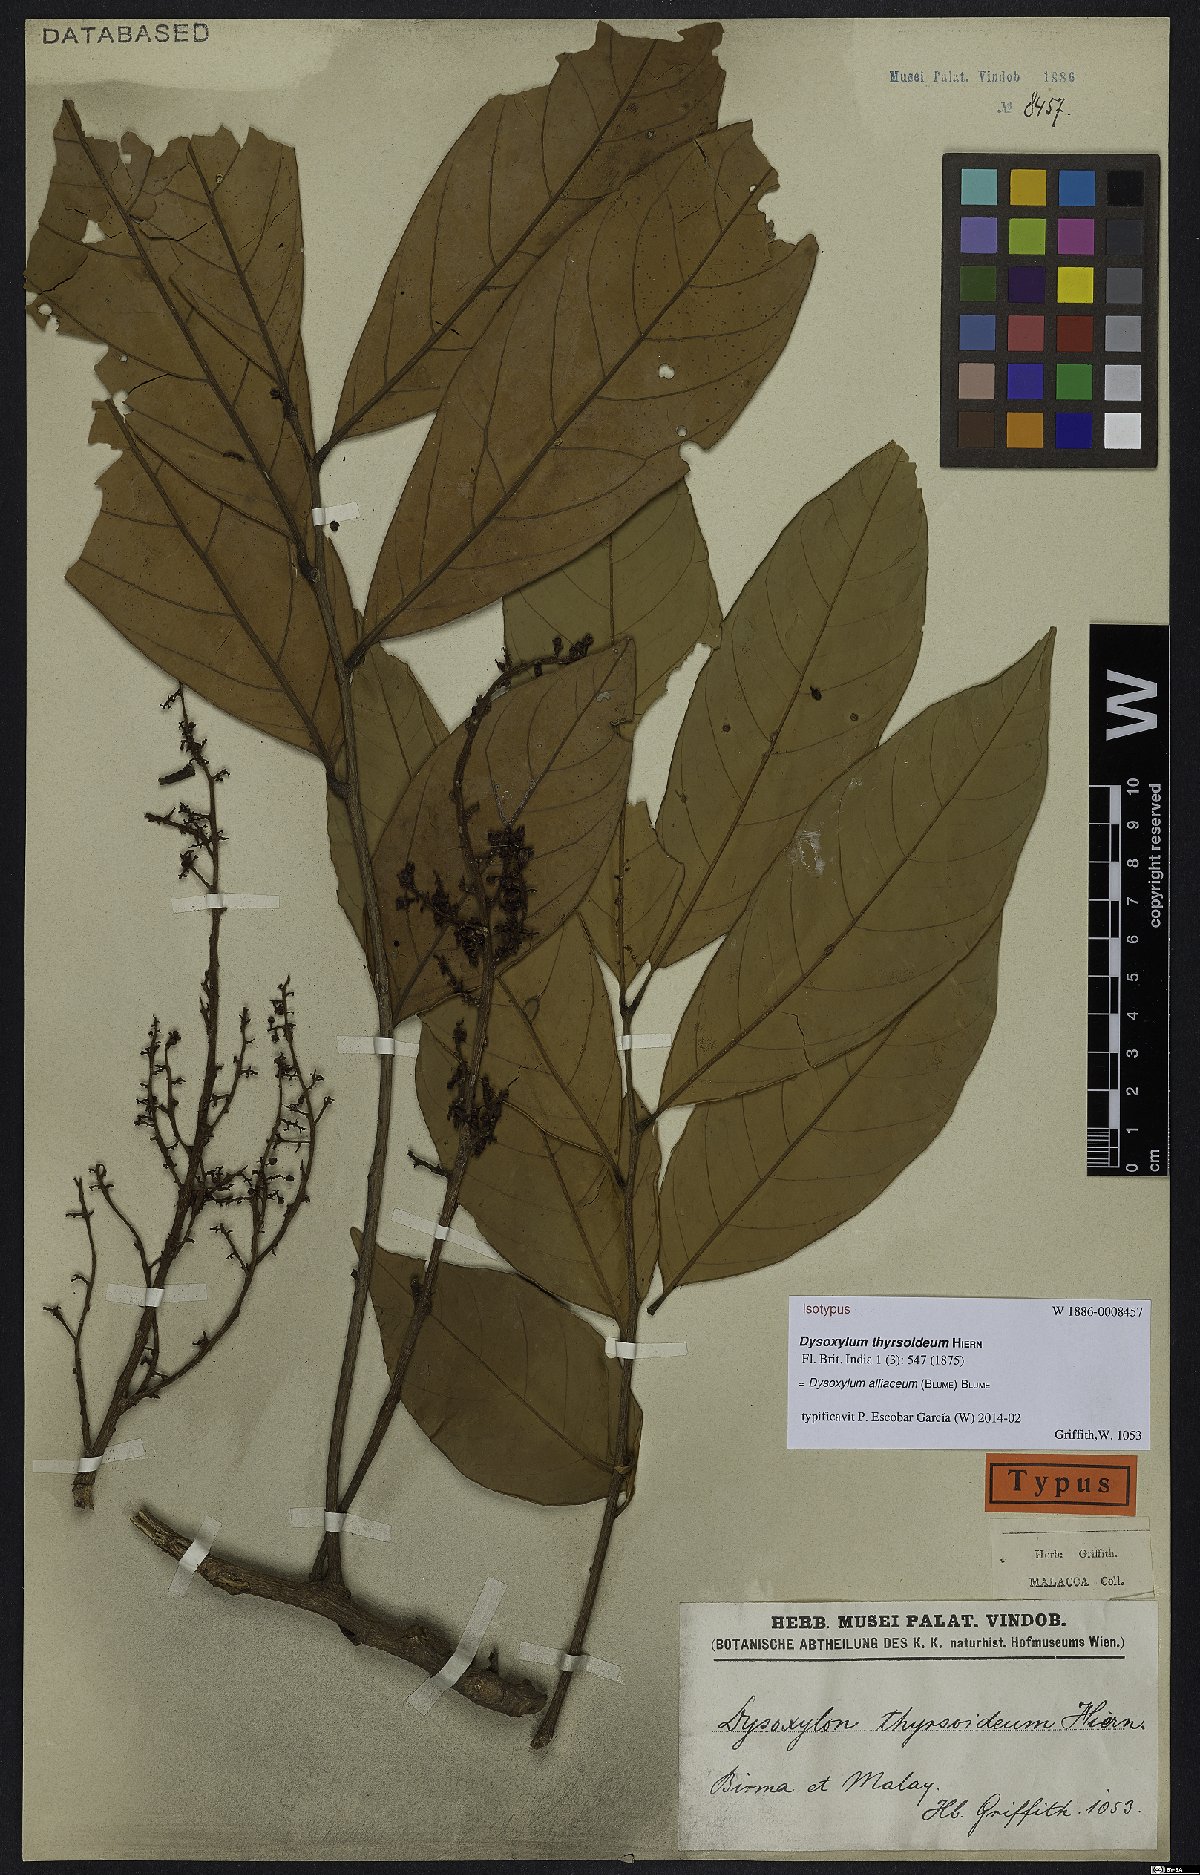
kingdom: Plantae
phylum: Tracheophyta
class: Magnoliopsida
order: Sapindales
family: Meliaceae
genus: Prasoxylon
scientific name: Prasoxylon alliaceum
